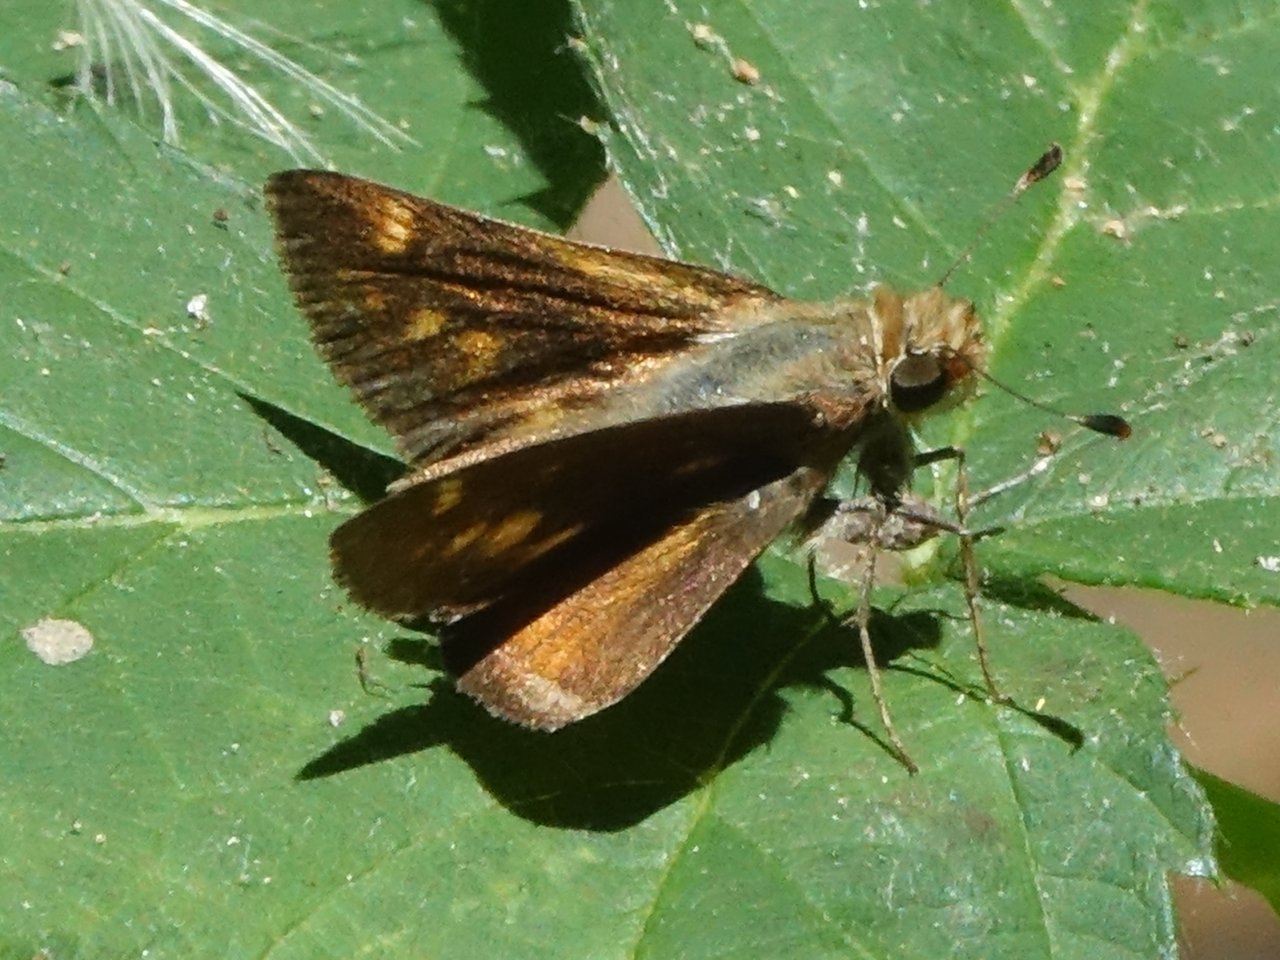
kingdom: Animalia
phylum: Arthropoda
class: Insecta
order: Lepidoptera
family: Hesperiidae
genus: Lon
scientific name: Lon melane
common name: Umber Skipper
